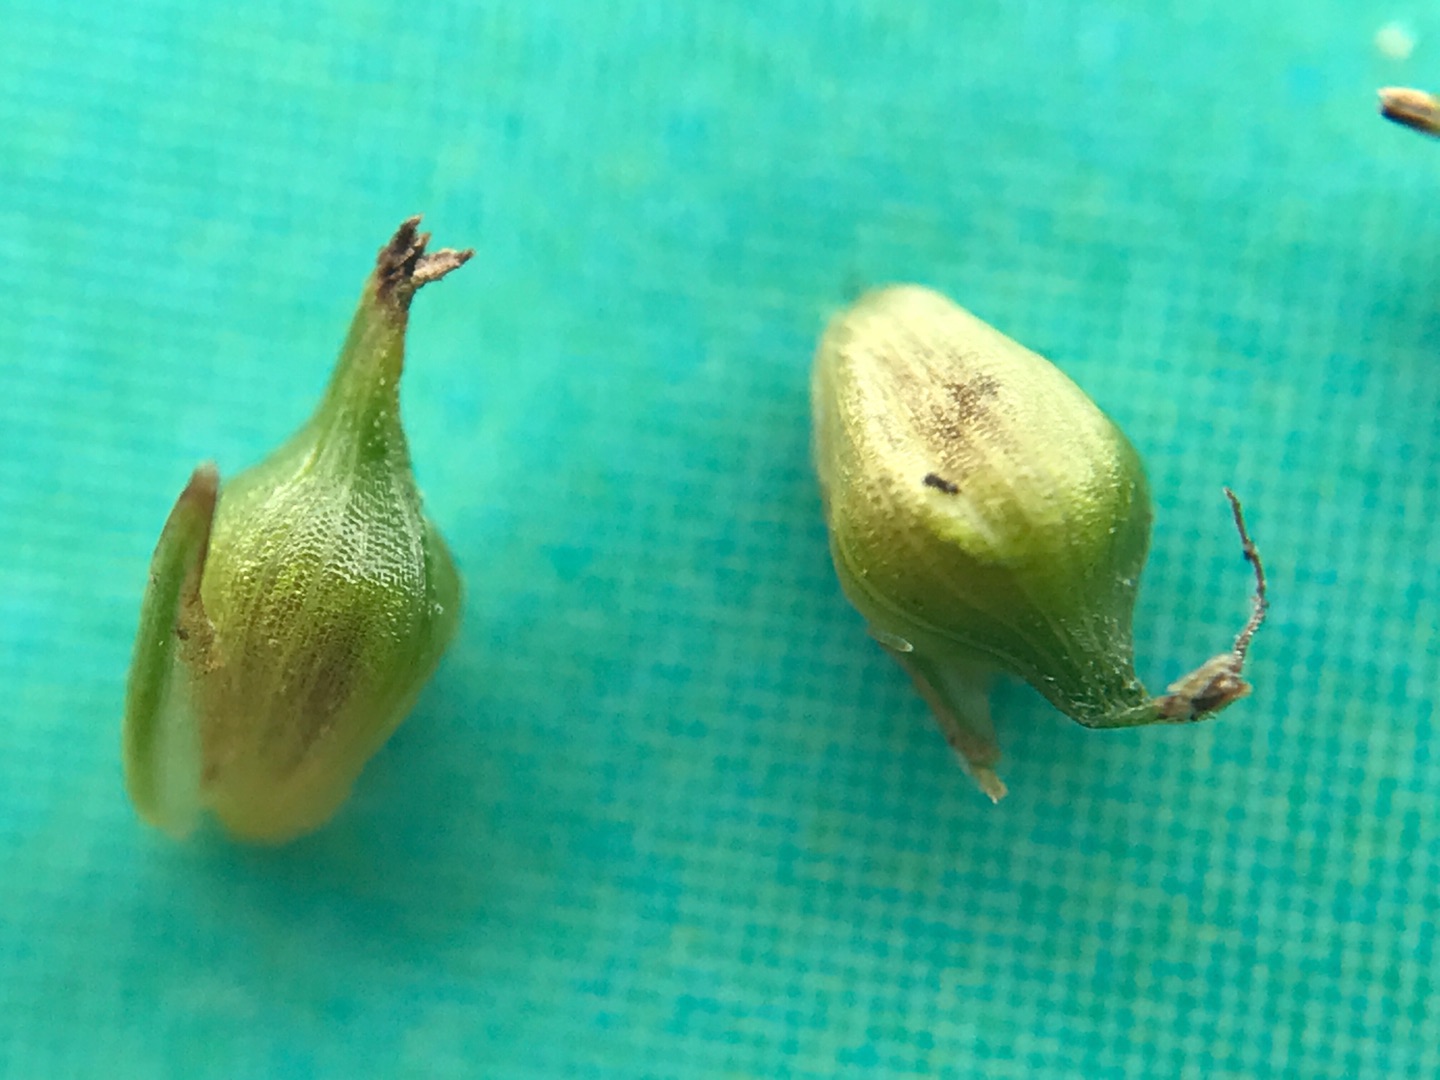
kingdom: Plantae
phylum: Tracheophyta
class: Liliopsida
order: Poales
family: Cyperaceae
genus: Carex
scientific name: Carex demissa
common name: Grøn star
